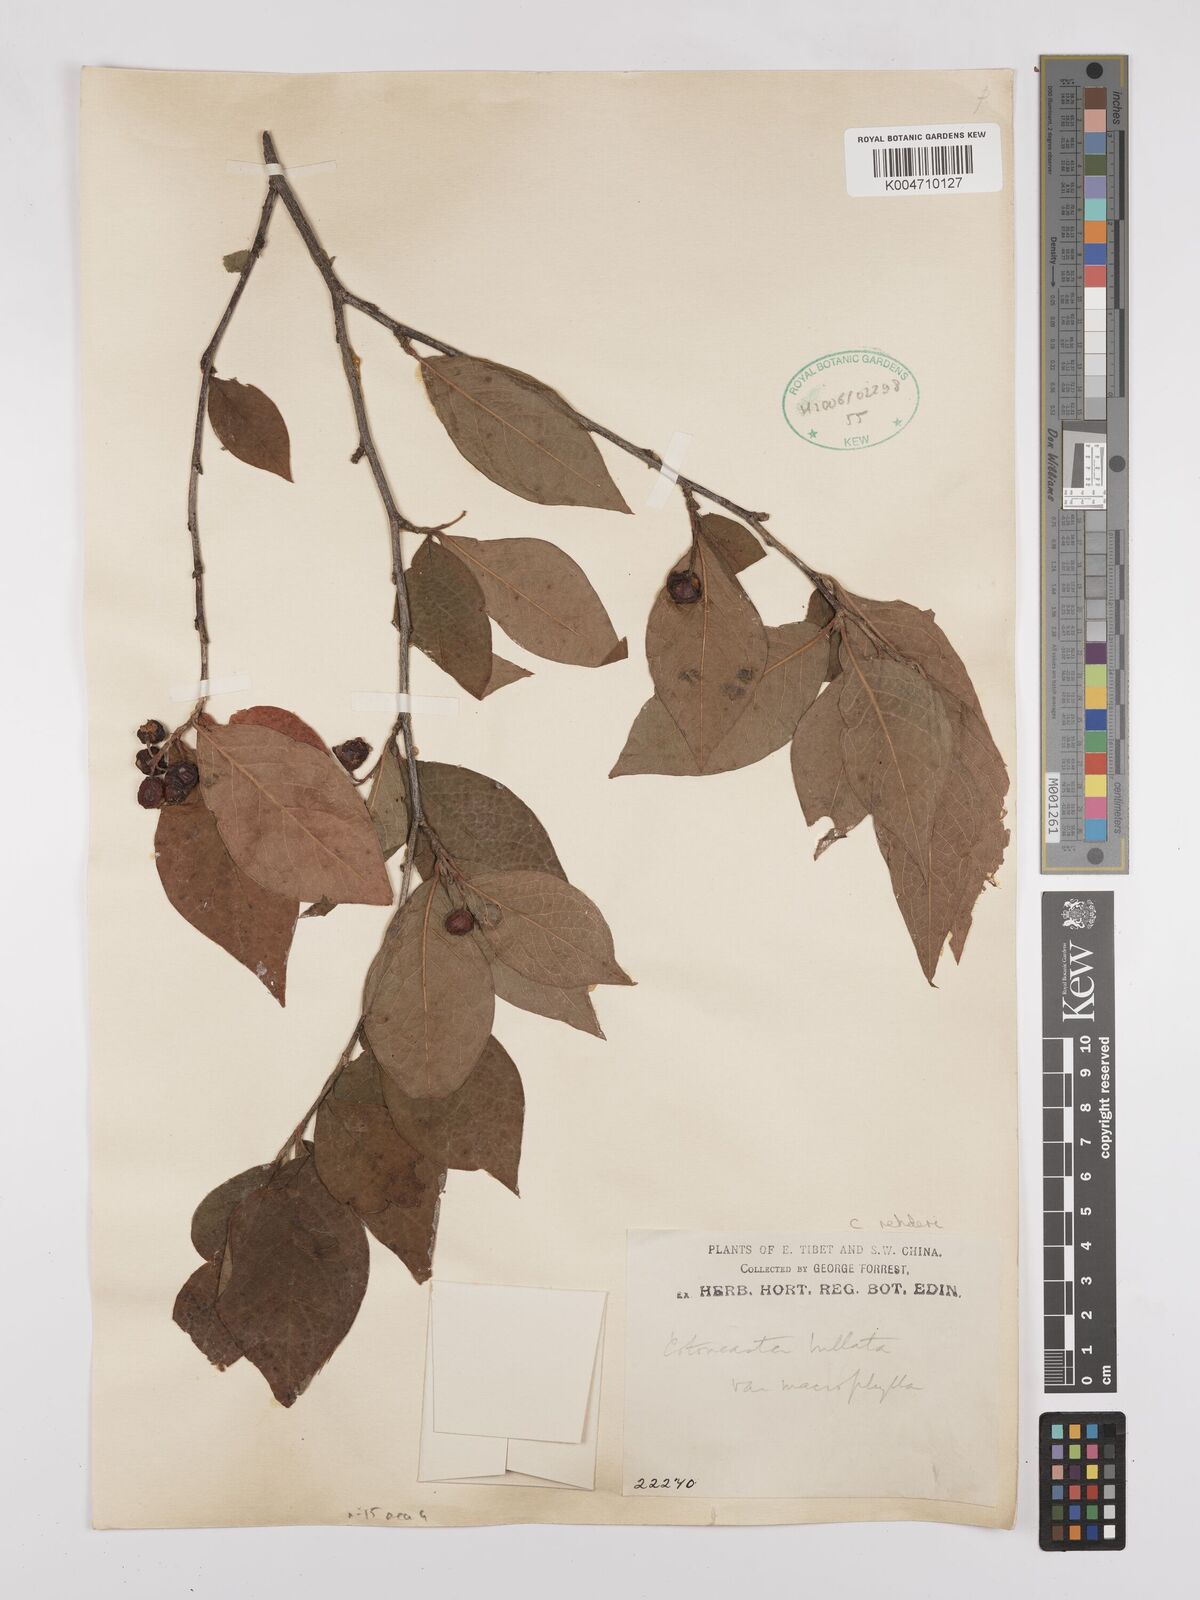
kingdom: Plantae
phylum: Tracheophyta
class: Magnoliopsida
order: Rosales
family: Rosaceae
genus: Cotoneaster
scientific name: Cotoneaster bullatus
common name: Hollyberry cotoneaster
